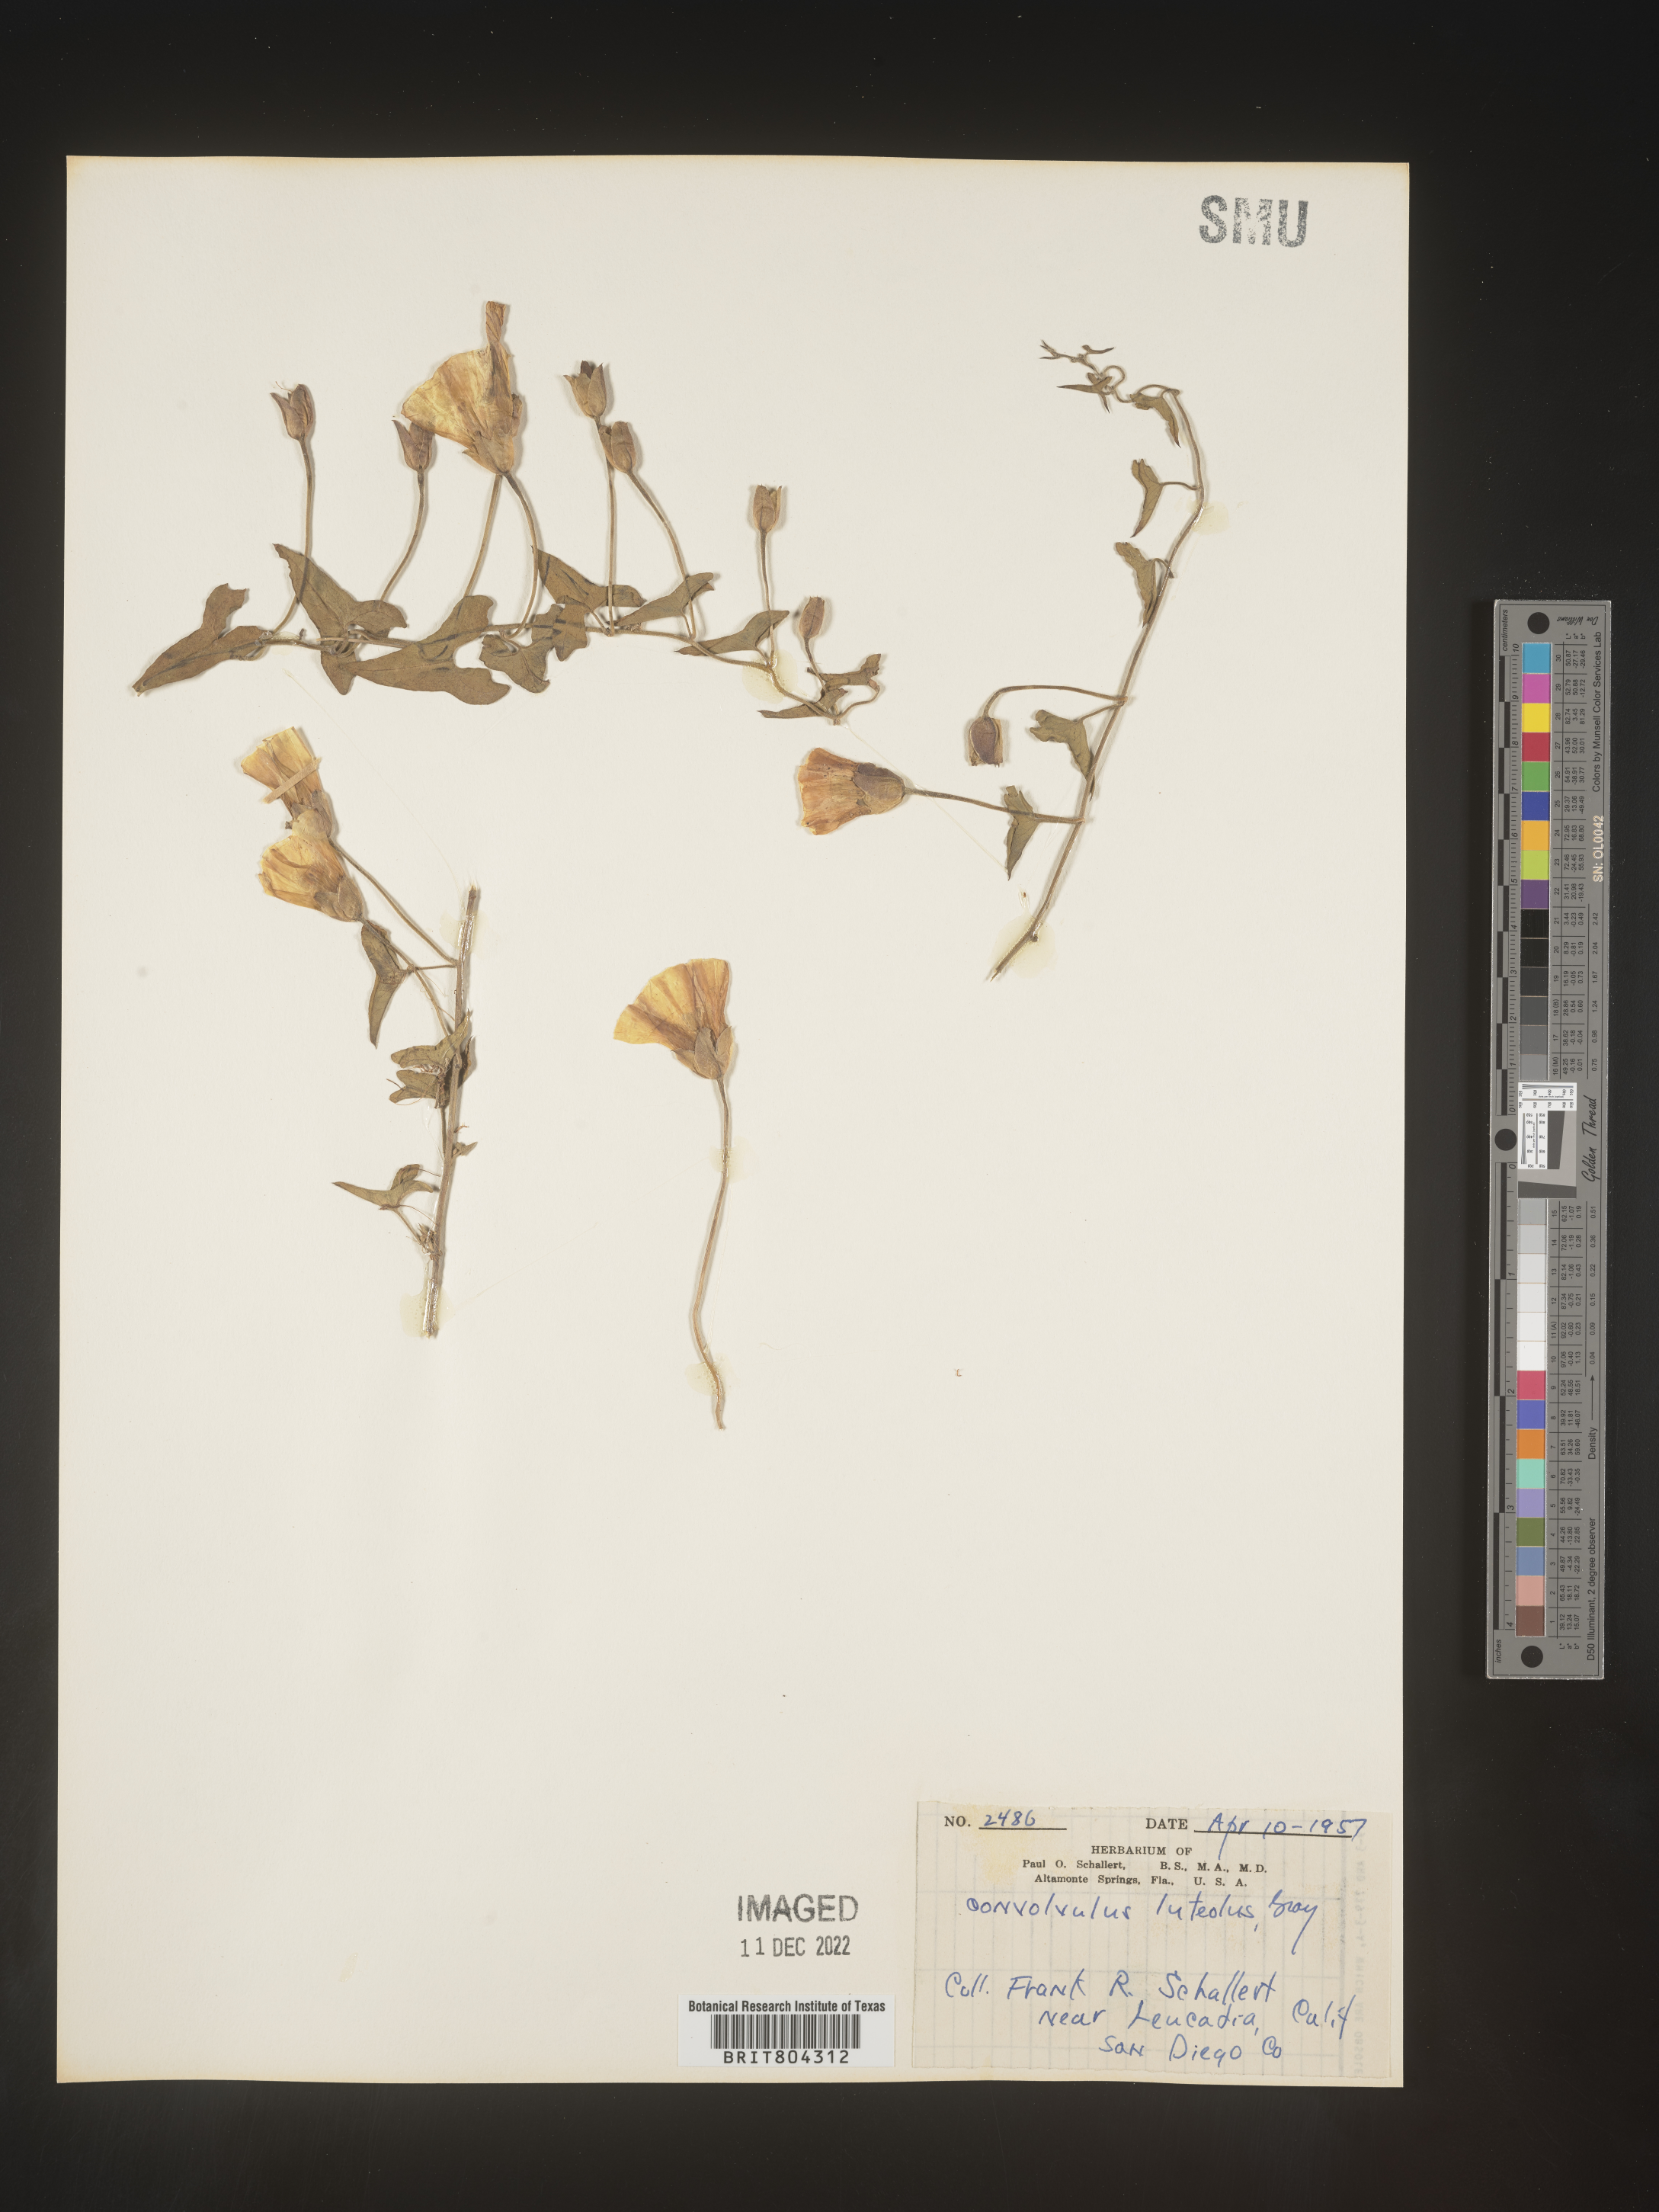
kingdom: Plantae
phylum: Tracheophyta
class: Magnoliopsida
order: Solanales
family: Convolvulaceae
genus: Calystegia
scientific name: Calystegia
